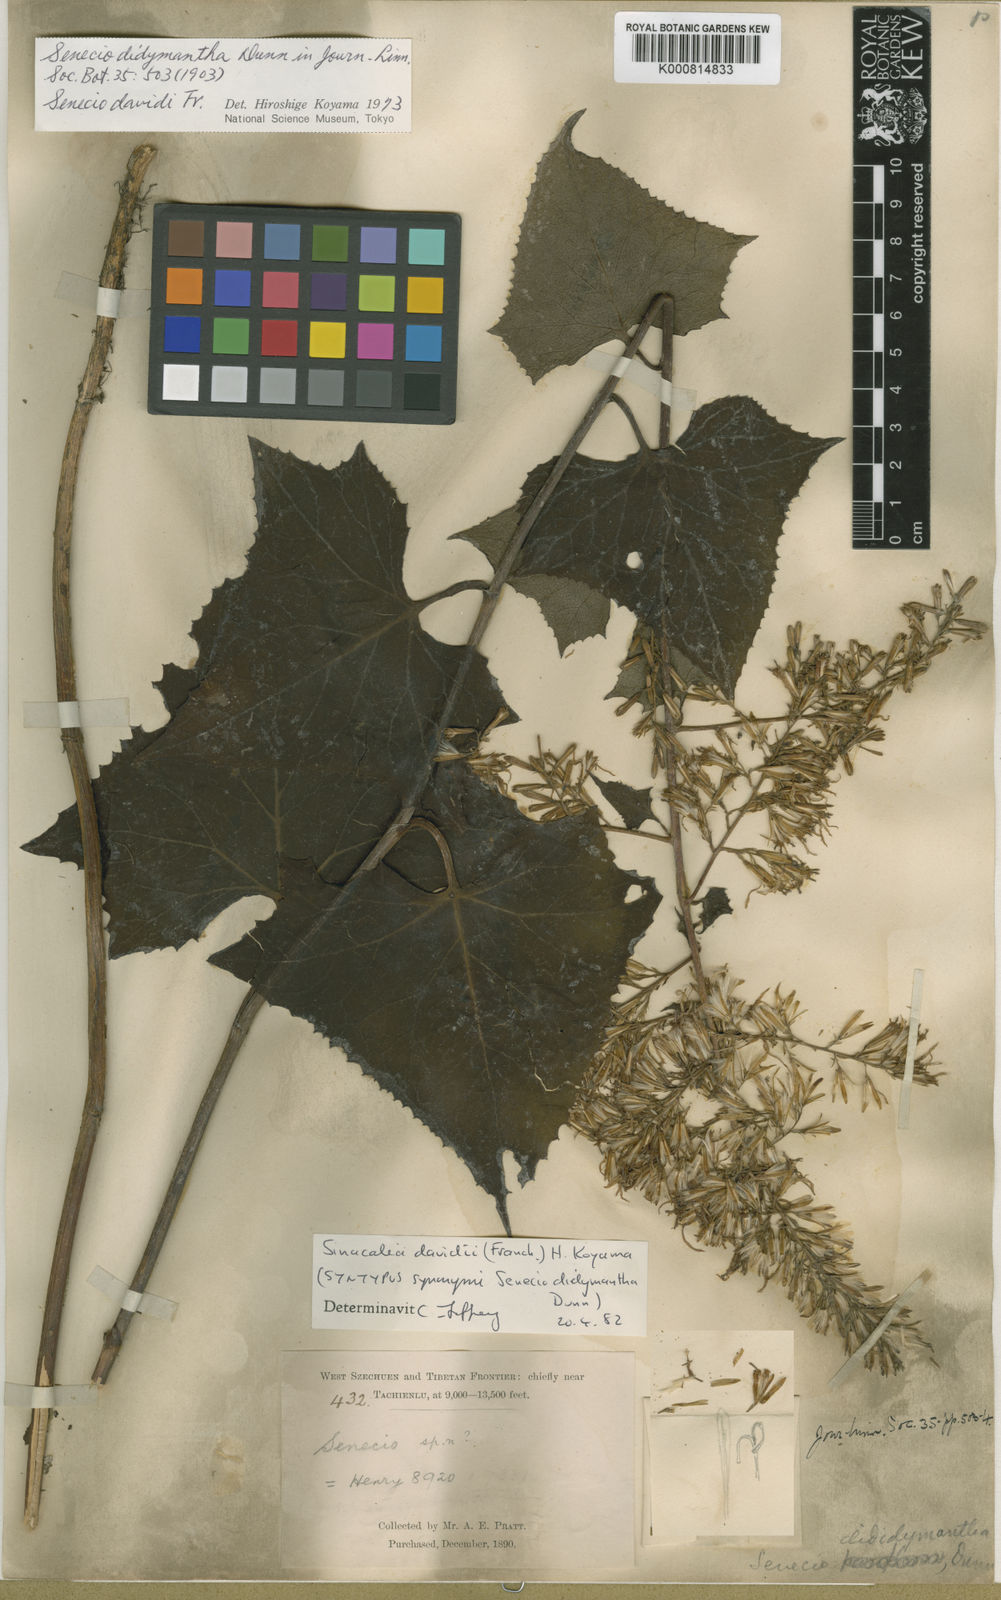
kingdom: Plantae
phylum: Tracheophyta
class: Magnoliopsida
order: Asterales
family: Asteraceae
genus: Sinacalia
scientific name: Sinacalia davidii
